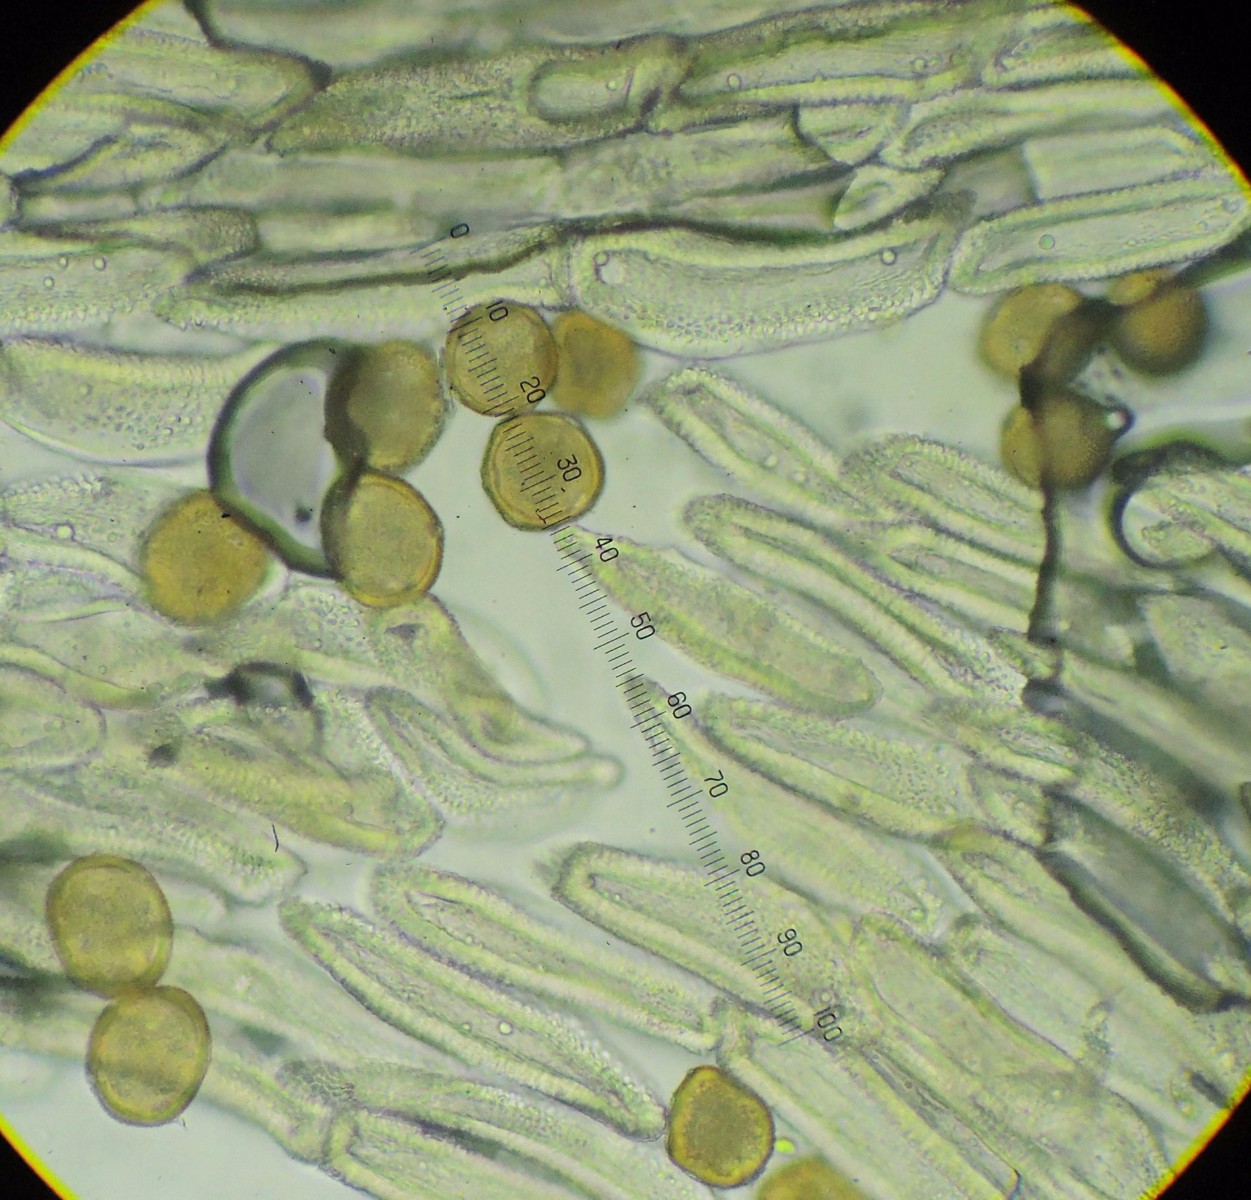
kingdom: Fungi
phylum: Basidiomycota
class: Pucciniomycetes
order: Pucciniales
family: Gymnosporangiaceae
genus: Gymnosporangium
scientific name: Gymnosporangium clavariiforme
